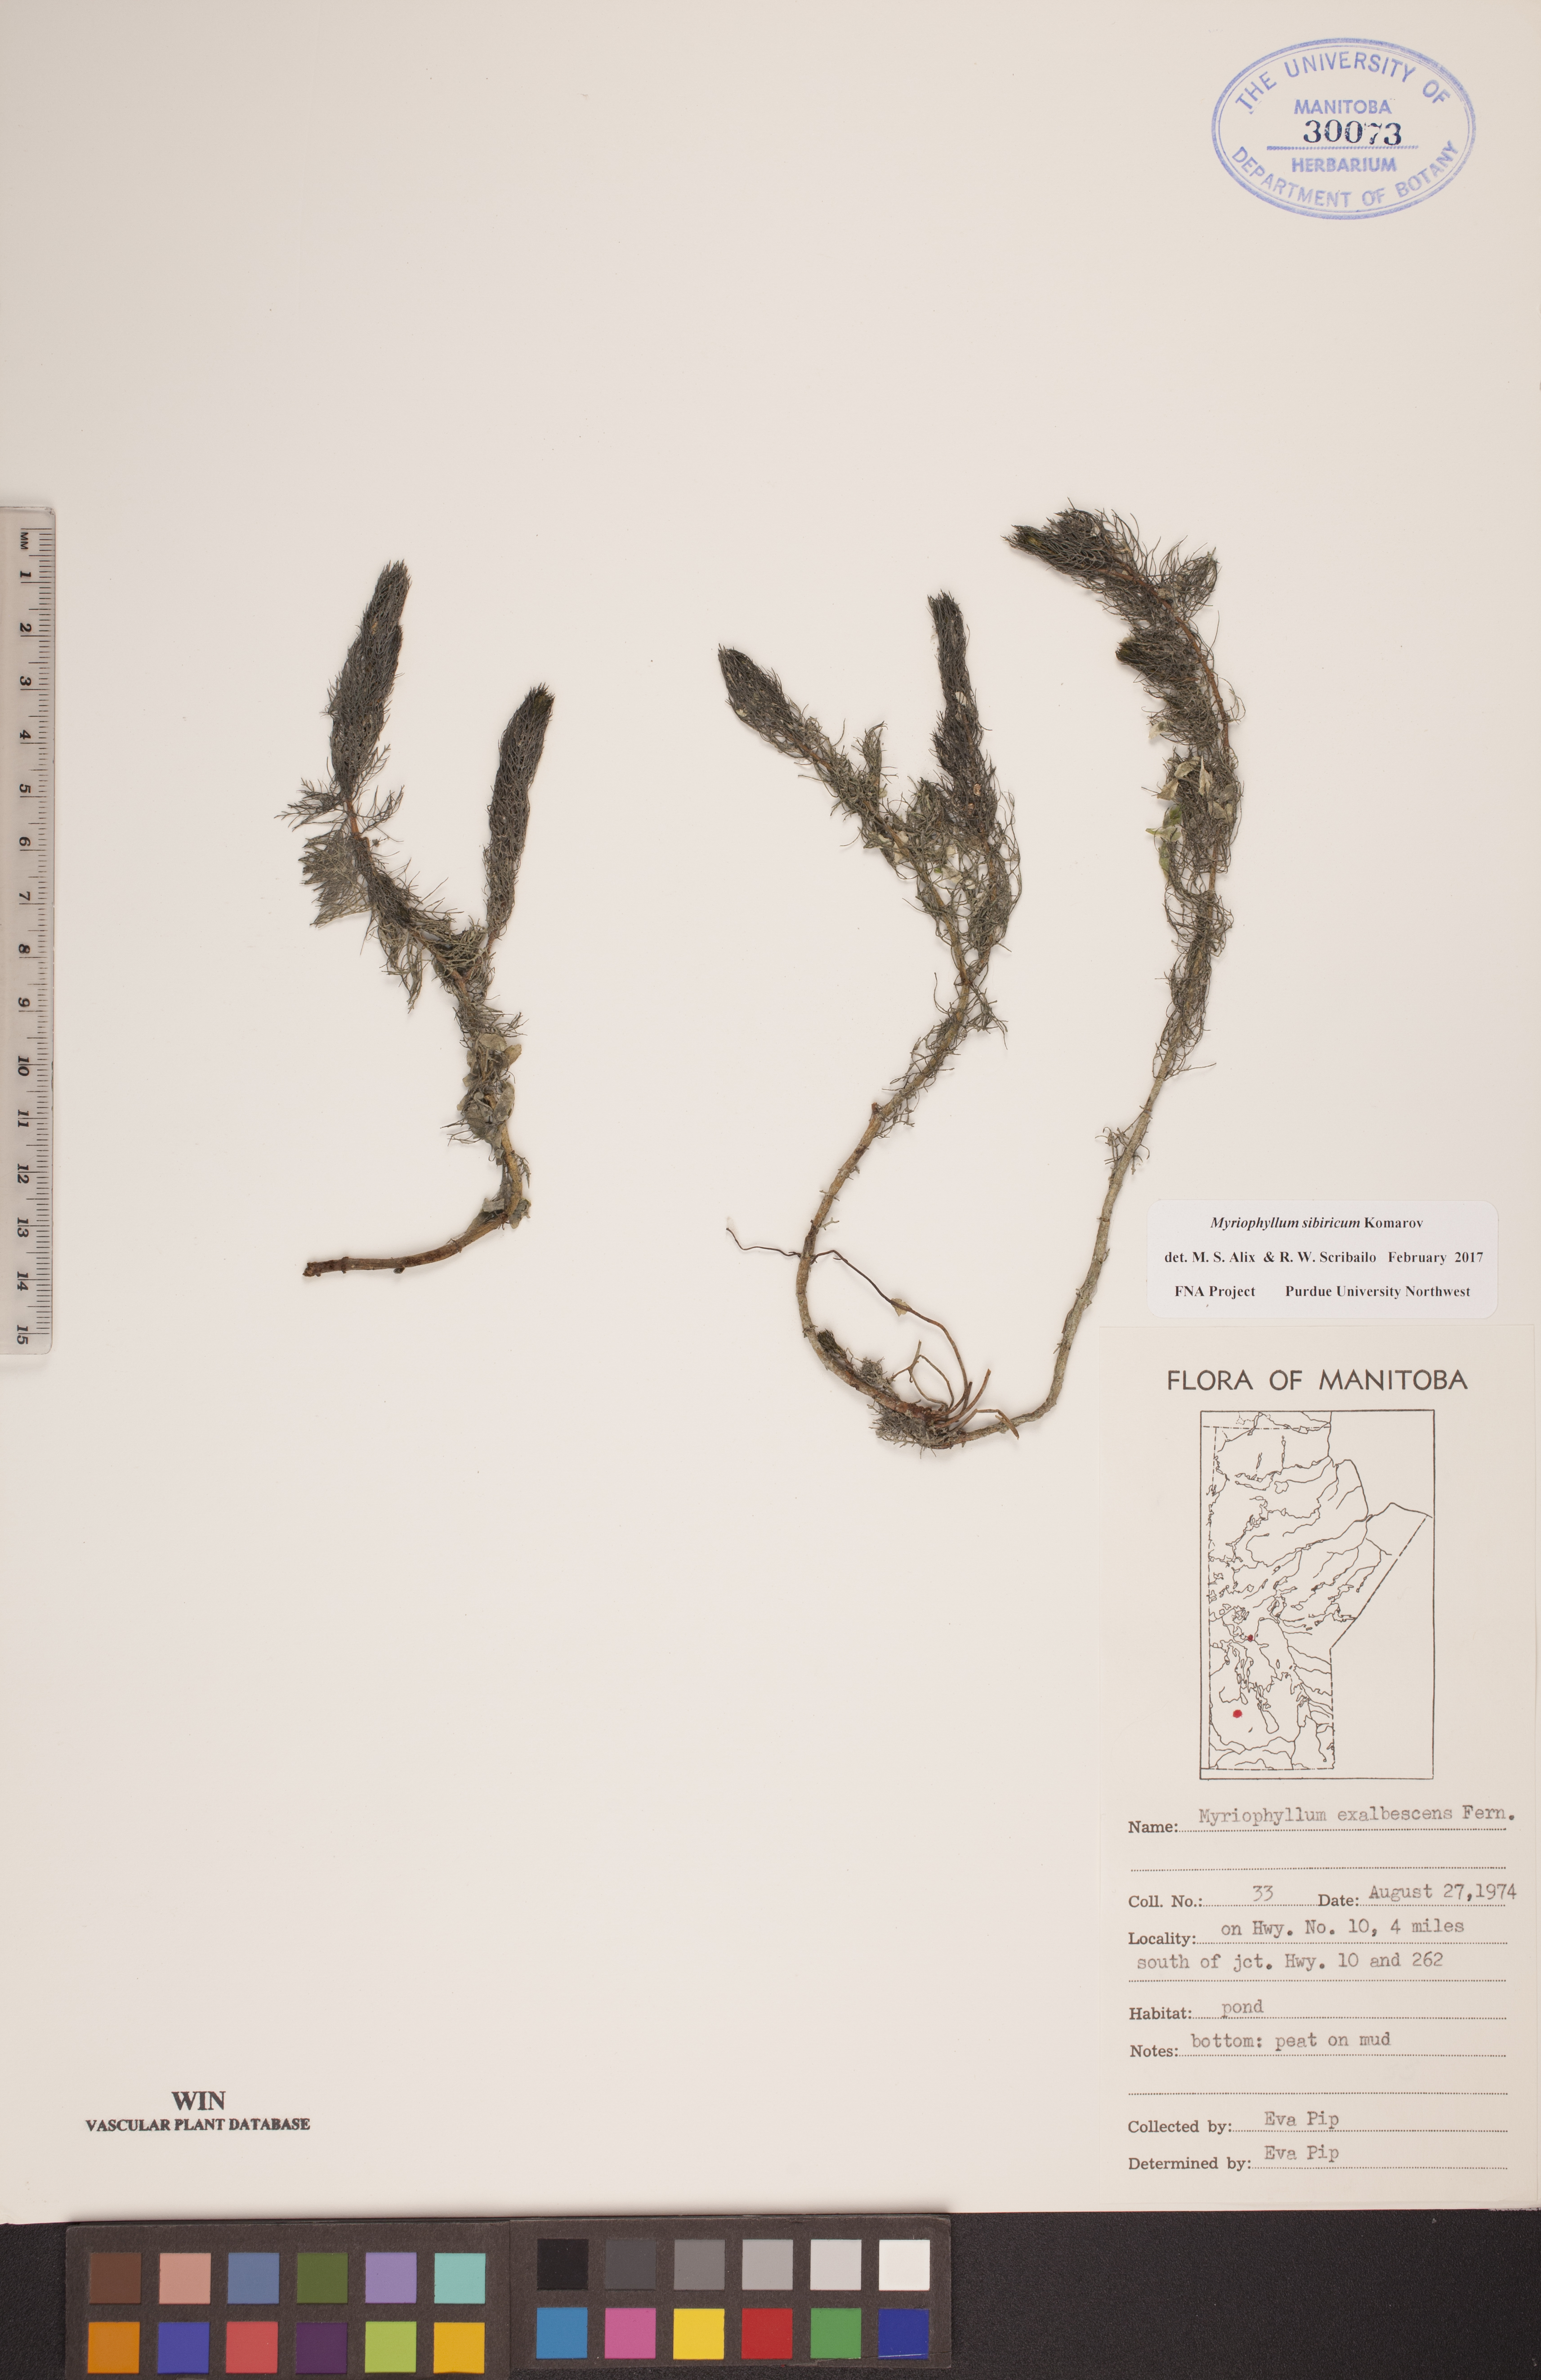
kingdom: Plantae
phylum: Tracheophyta
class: Magnoliopsida
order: Saxifragales
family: Haloragaceae
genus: Myriophyllum
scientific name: Myriophyllum sibiricum
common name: Siberian water-milfoil
